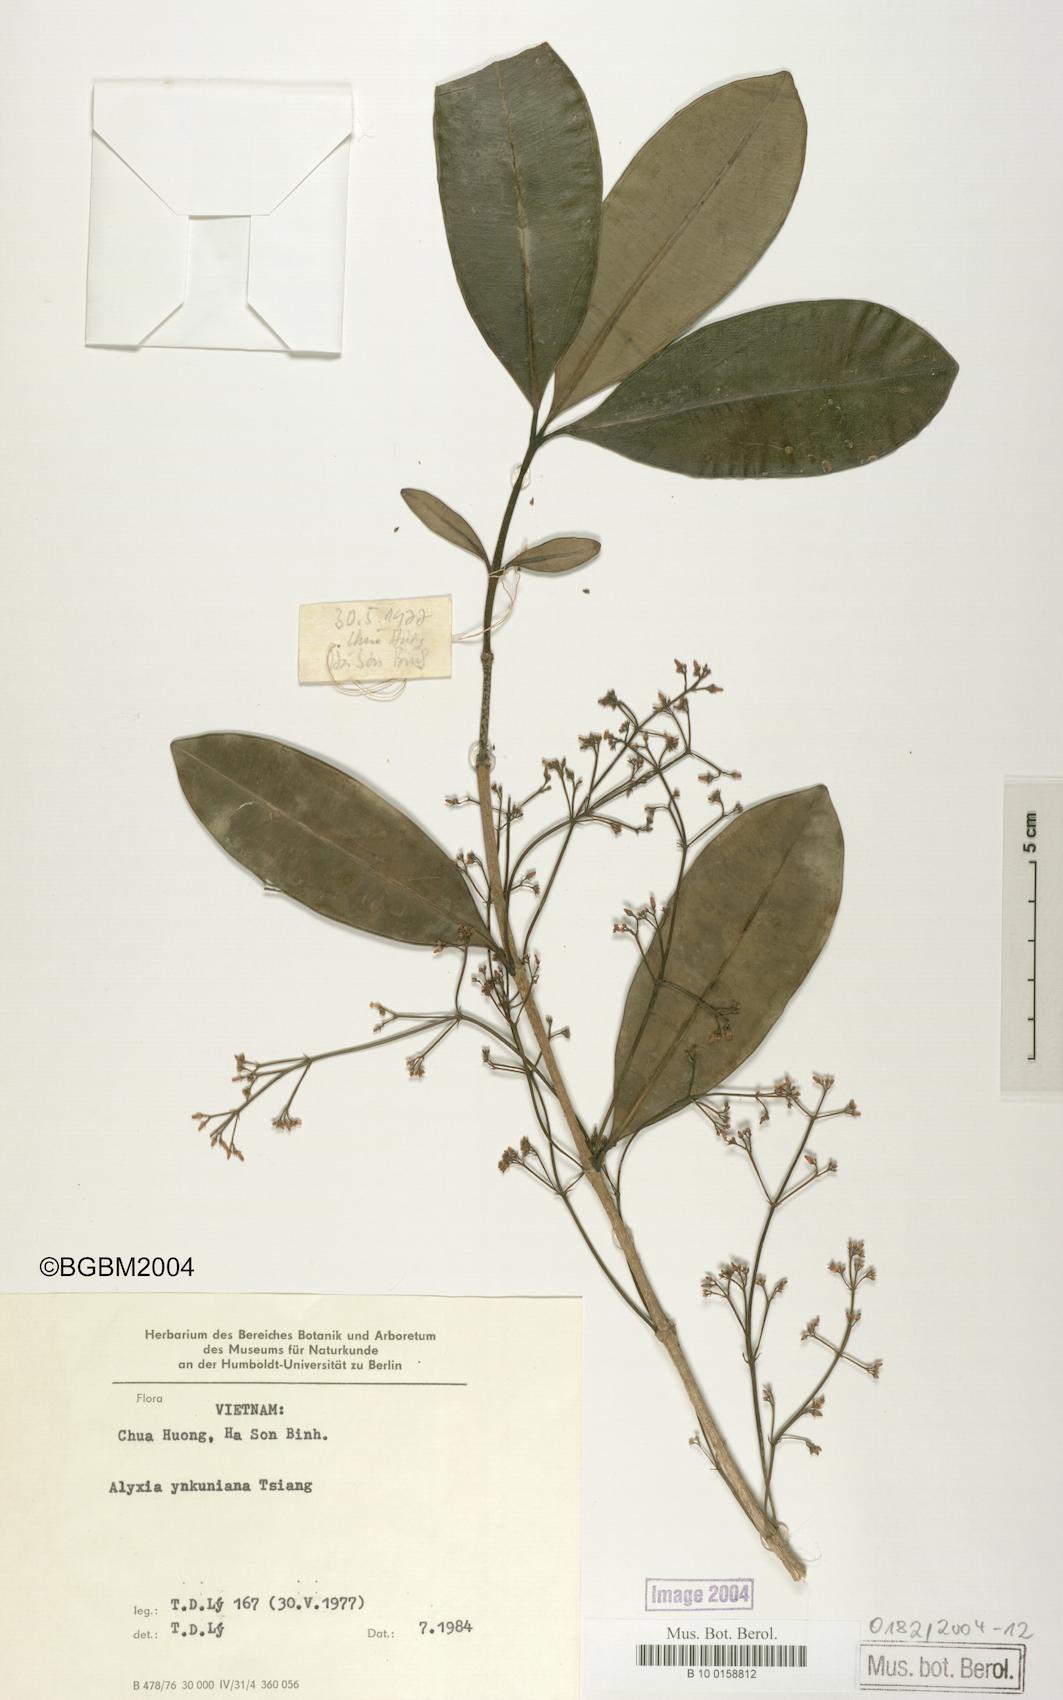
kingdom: Plantae
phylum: Tracheophyta
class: Magnoliopsida
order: Gentianales
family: Apocynaceae
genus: Alyxia
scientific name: Alyxia siamensis
